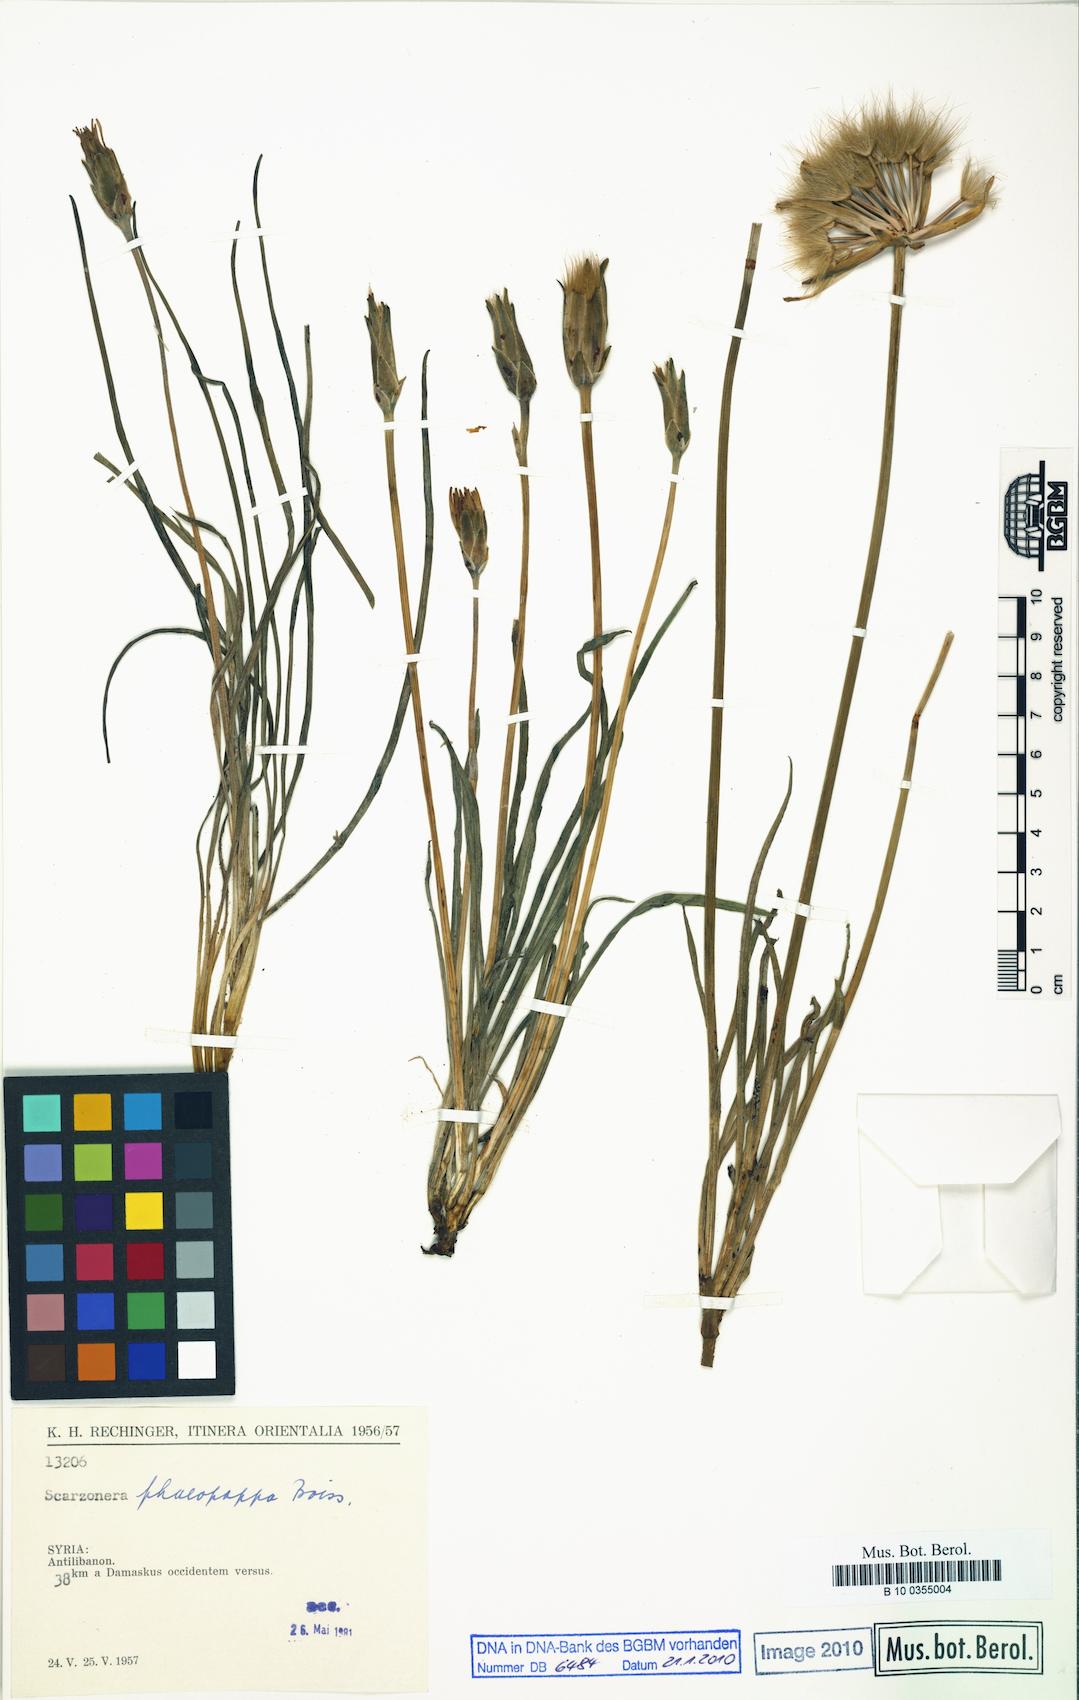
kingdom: Plantae
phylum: Tracheophyta
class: Magnoliopsida
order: Asterales
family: Asteraceae
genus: Pseudopodospermum
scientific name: Pseudopodospermum phaeopappum
